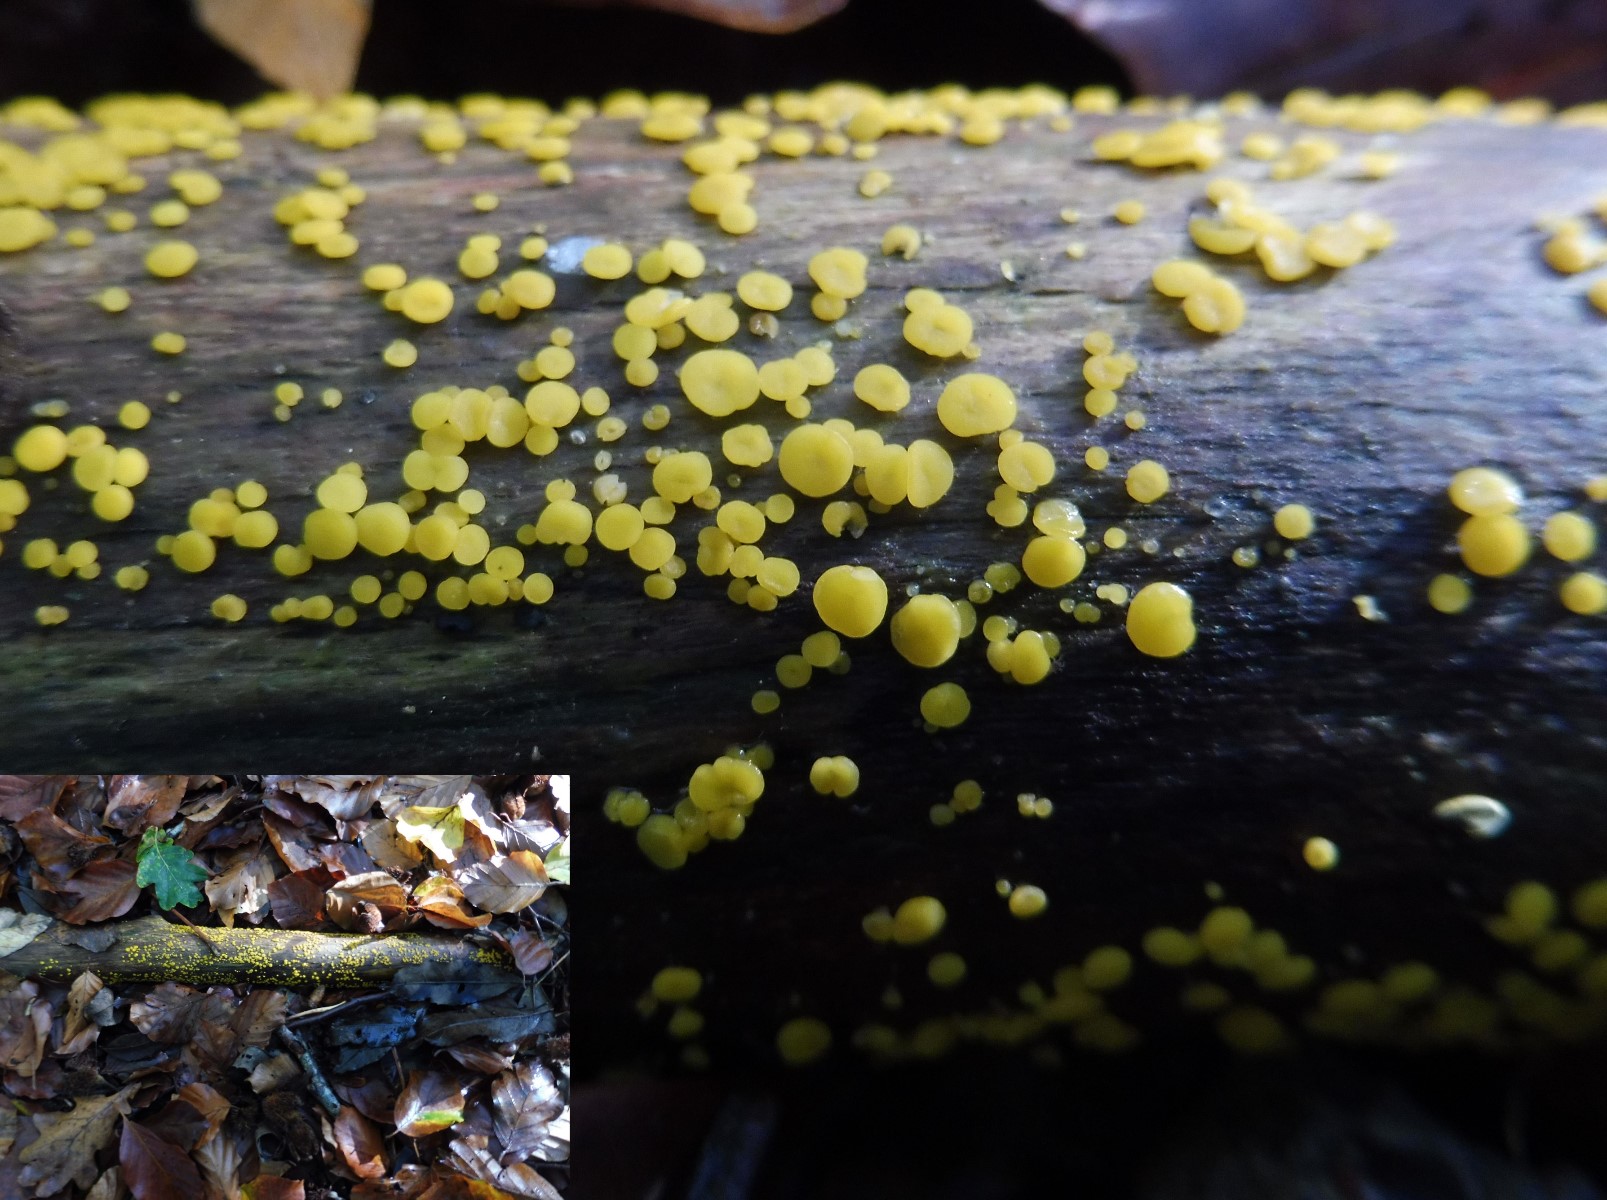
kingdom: Fungi
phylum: Ascomycota
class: Leotiomycetes
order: Helotiales
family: Pezizellaceae
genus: Calycina
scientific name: Calycina citrina
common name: almindelig gulskive
